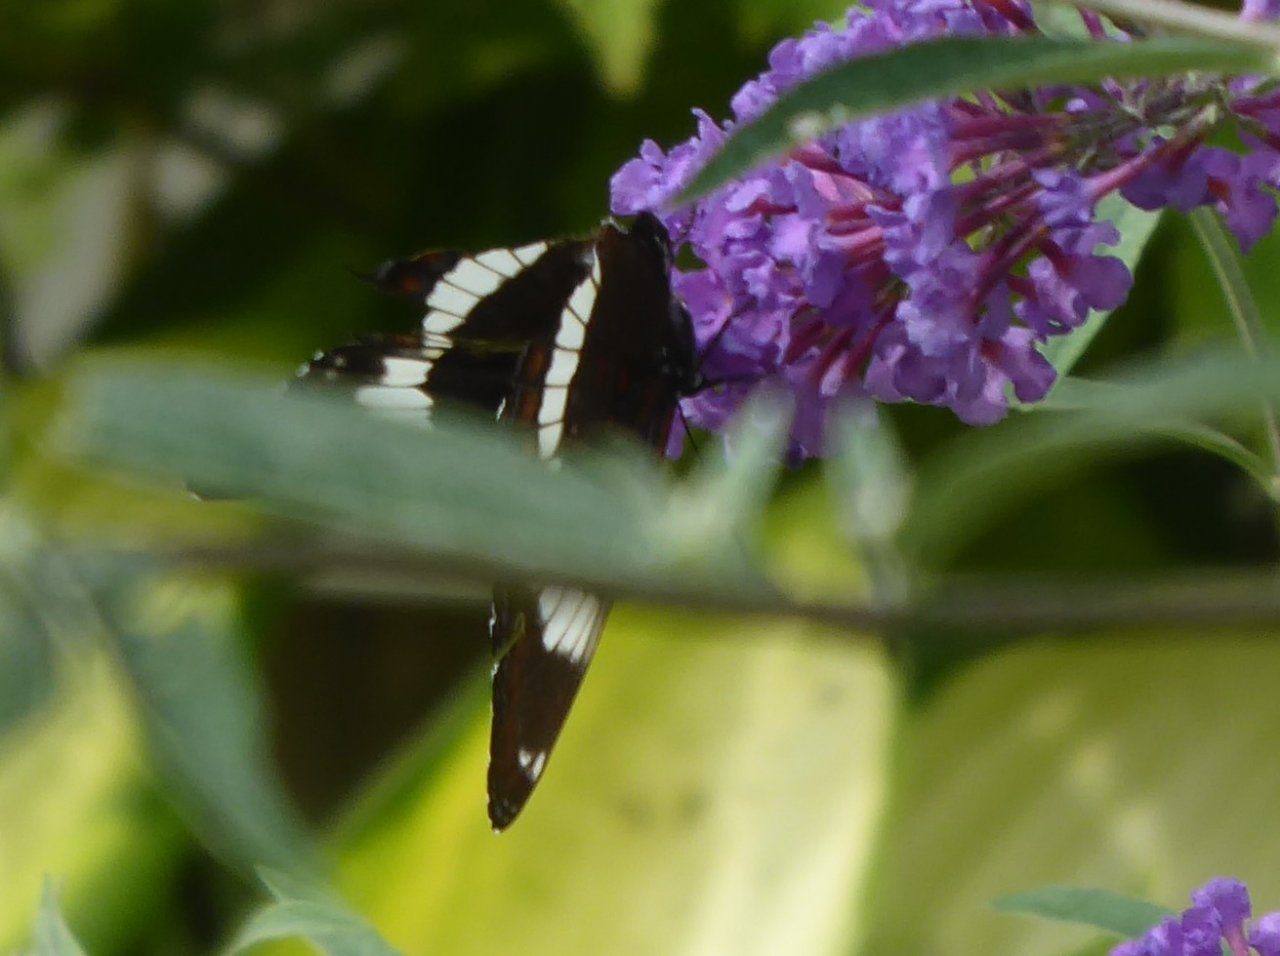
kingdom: Animalia
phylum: Arthropoda
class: Insecta
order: Lepidoptera
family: Nymphalidae
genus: Limenitis
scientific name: Limenitis arthemis
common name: Red-spotted Admiral
